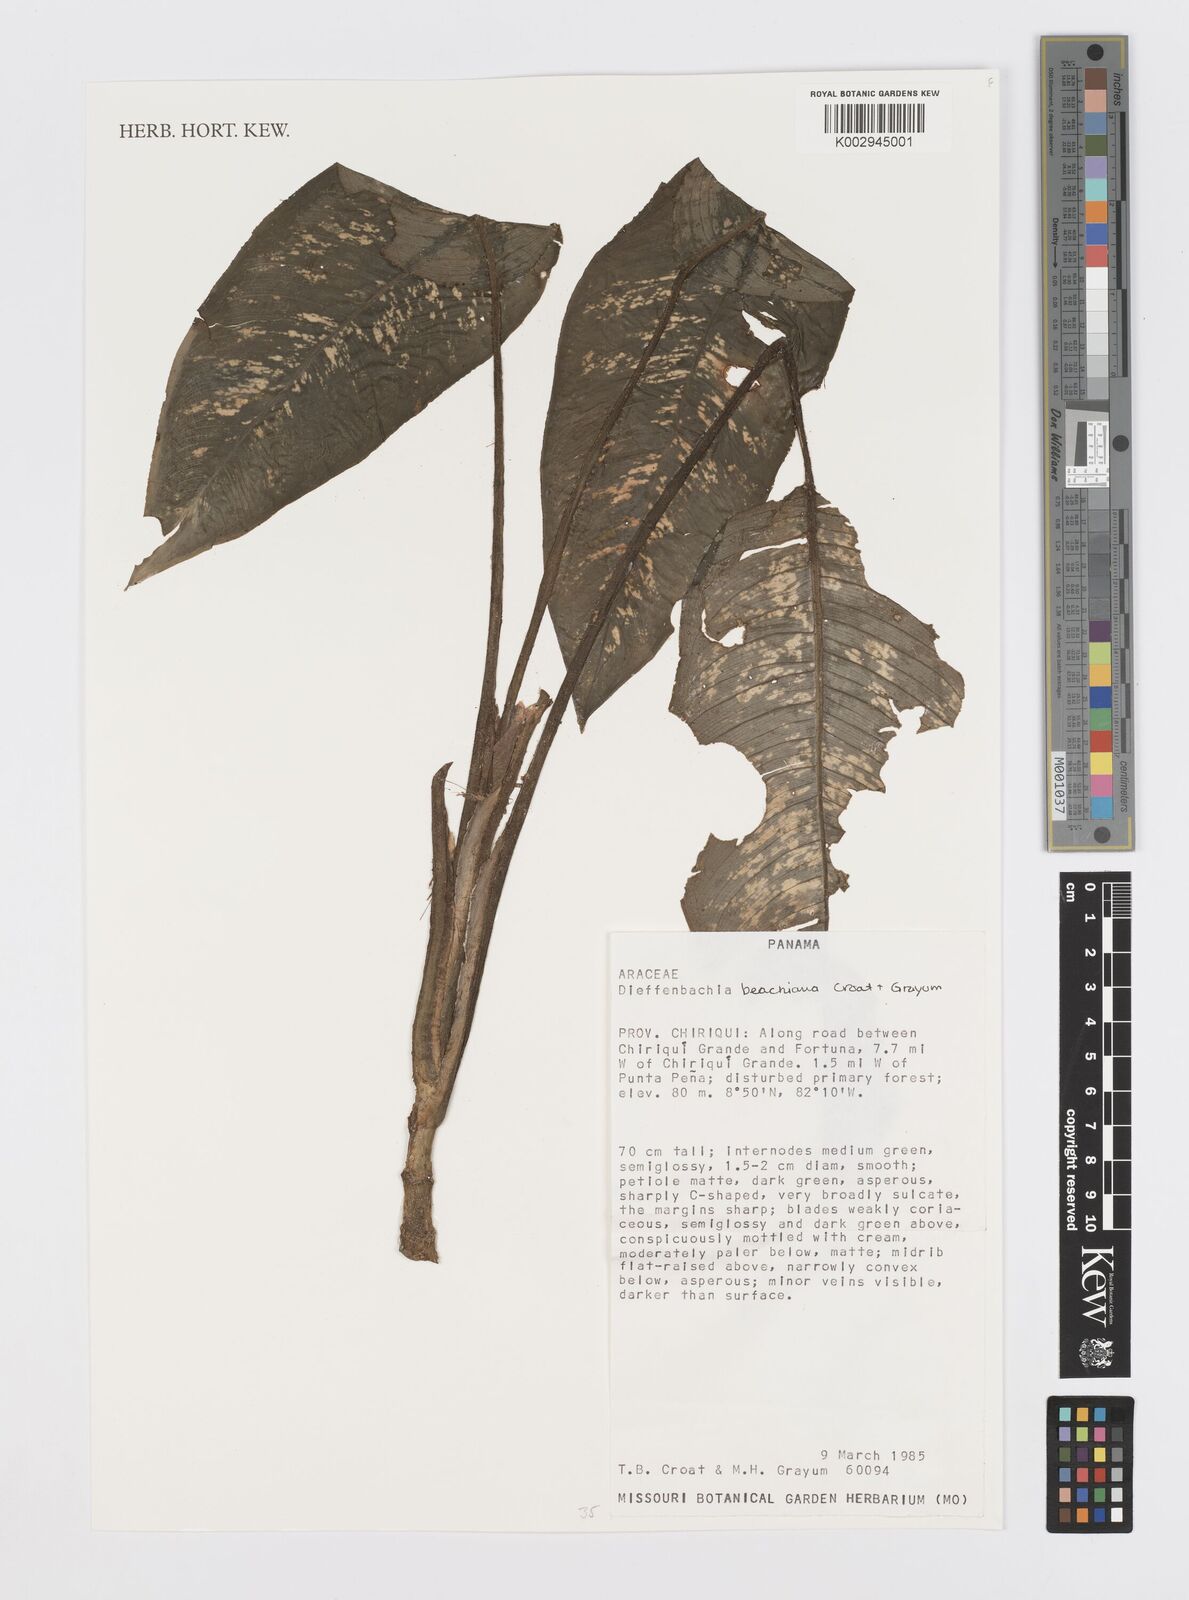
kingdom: Plantae
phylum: Tracheophyta
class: Liliopsida
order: Alismatales
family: Araceae
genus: Dieffenbachia
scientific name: Dieffenbachia beachiana
